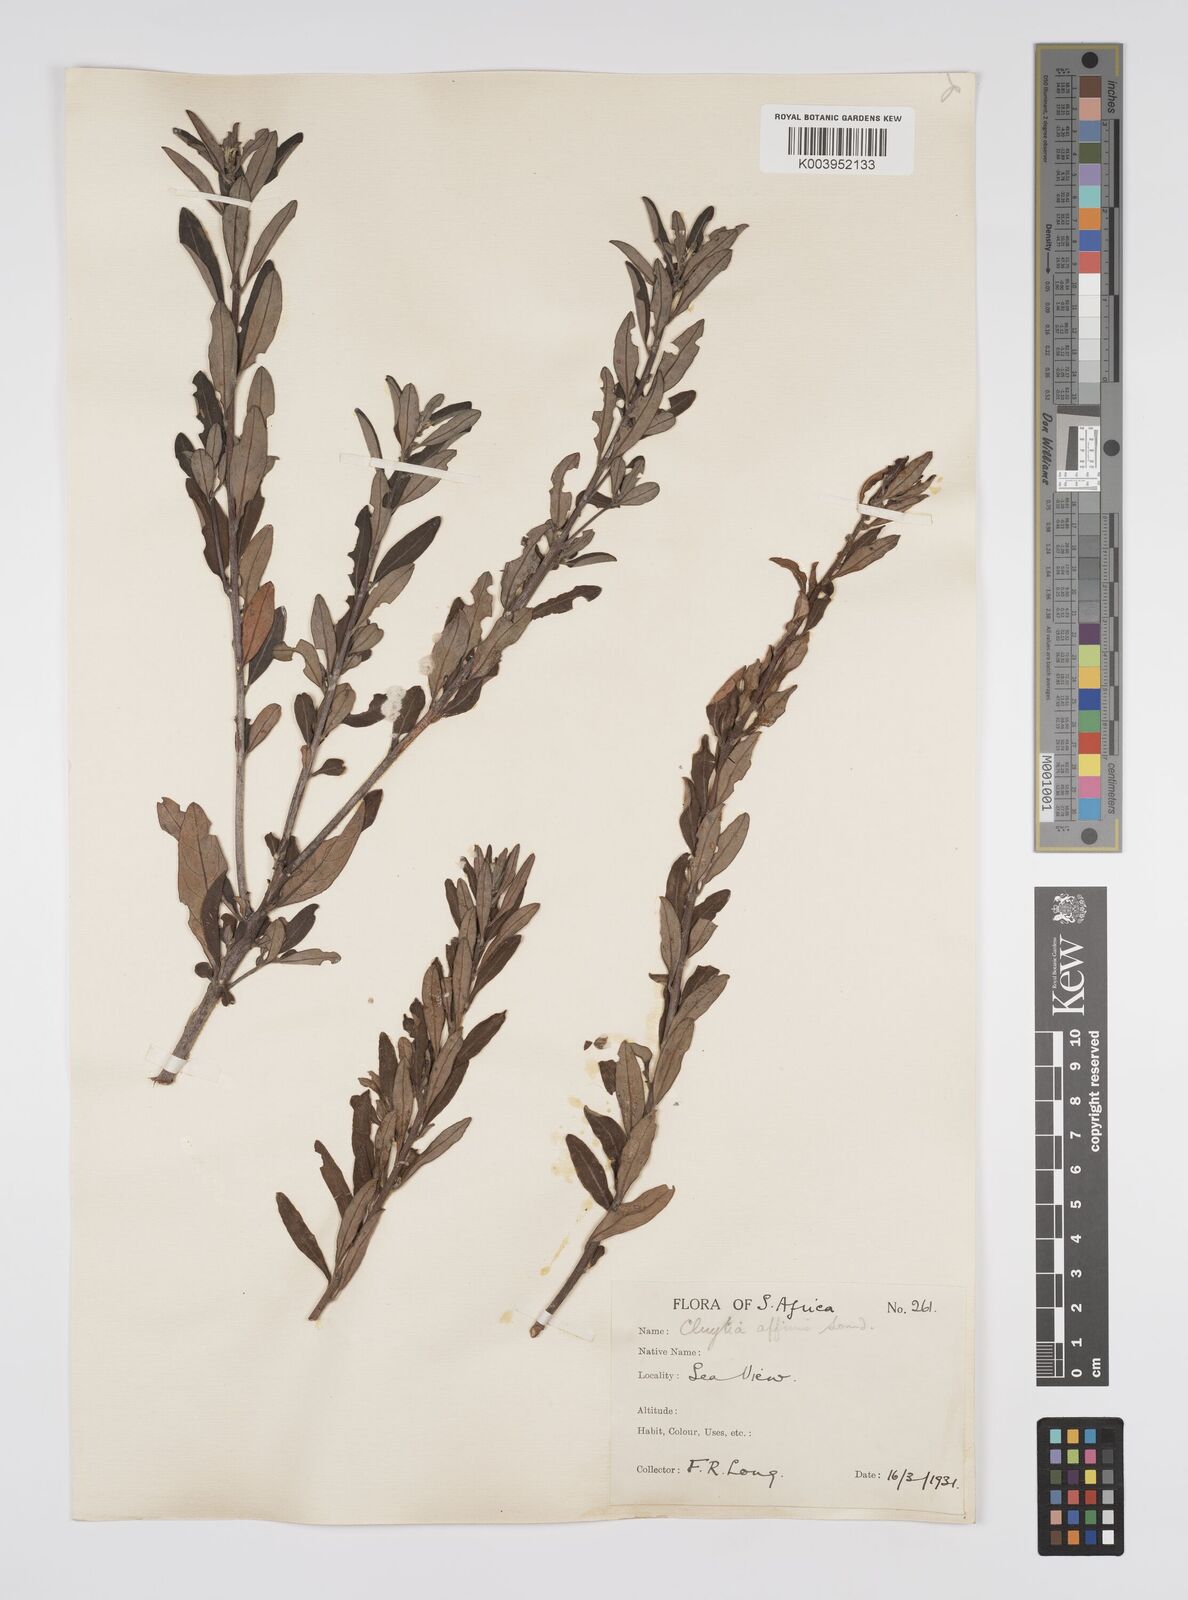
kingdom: Plantae
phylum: Tracheophyta
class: Magnoliopsida
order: Malpighiales
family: Peraceae
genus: Clutia
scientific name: Clutia affinis
